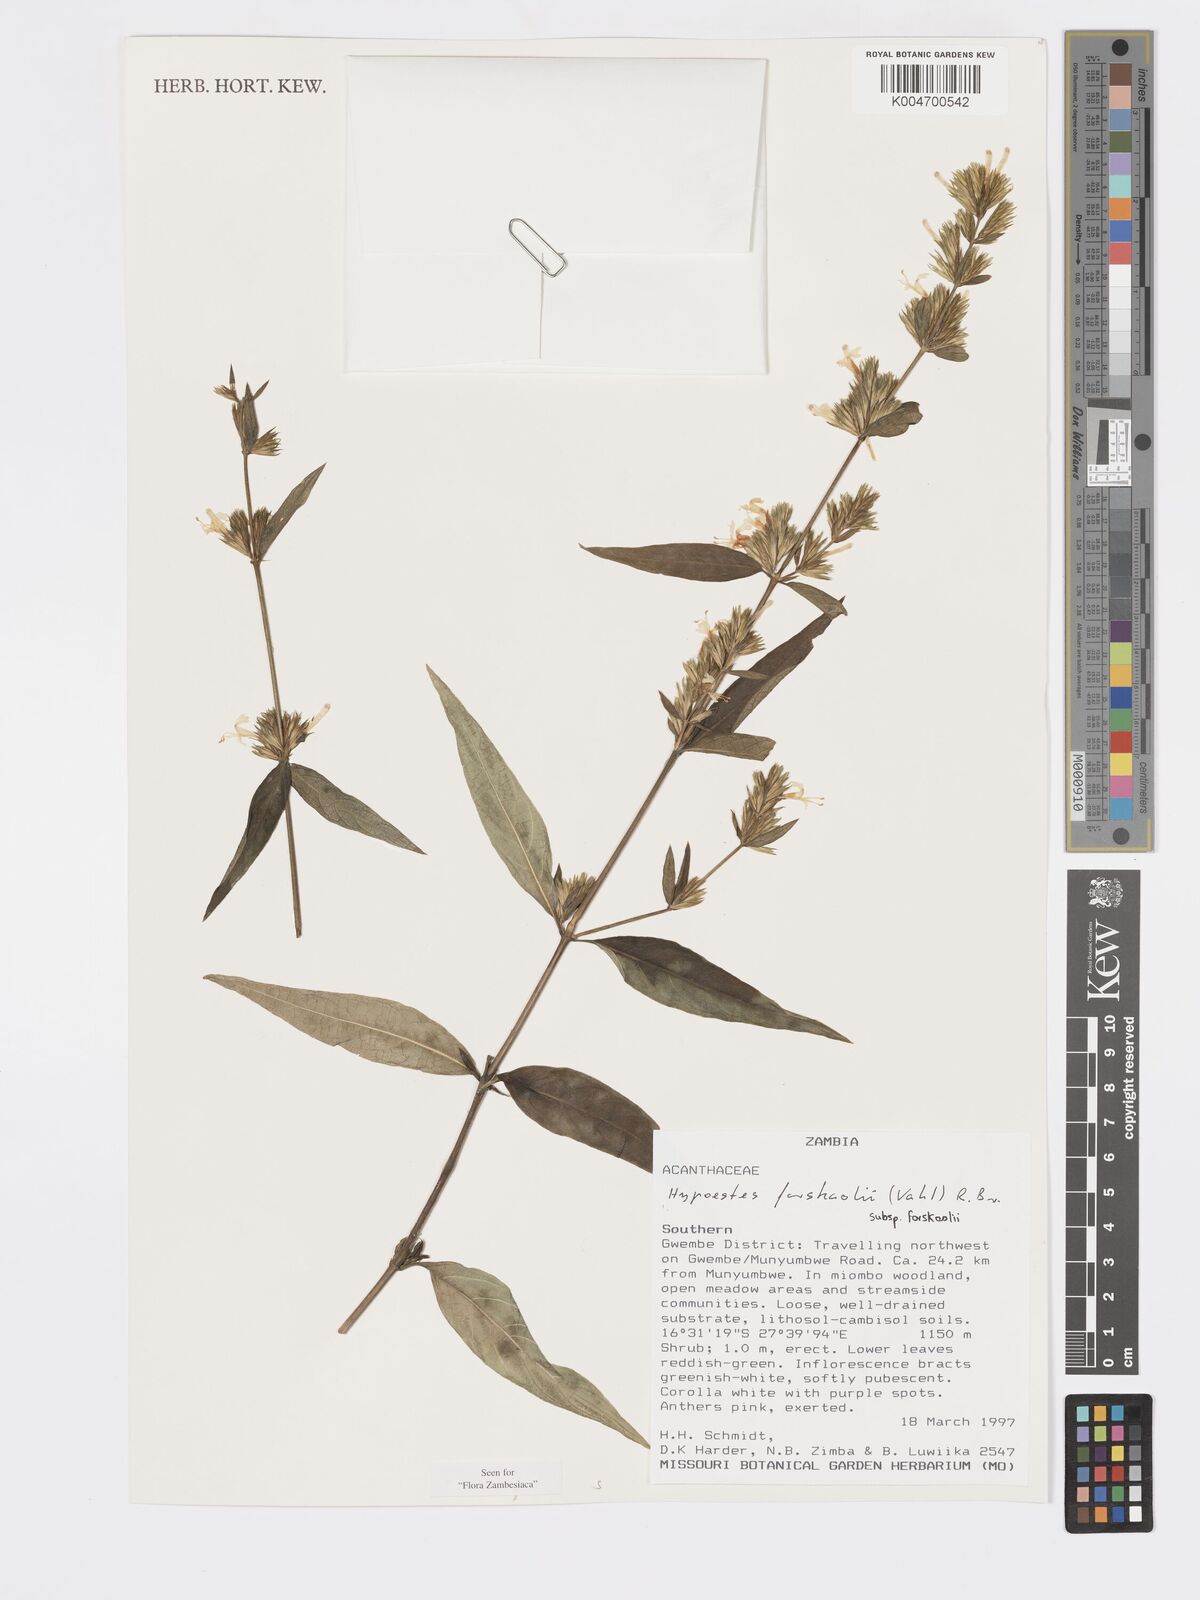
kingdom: Plantae
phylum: Tracheophyta
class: Magnoliopsida
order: Lamiales
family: Acanthaceae
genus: Hypoestes
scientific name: Hypoestes forskaolii
